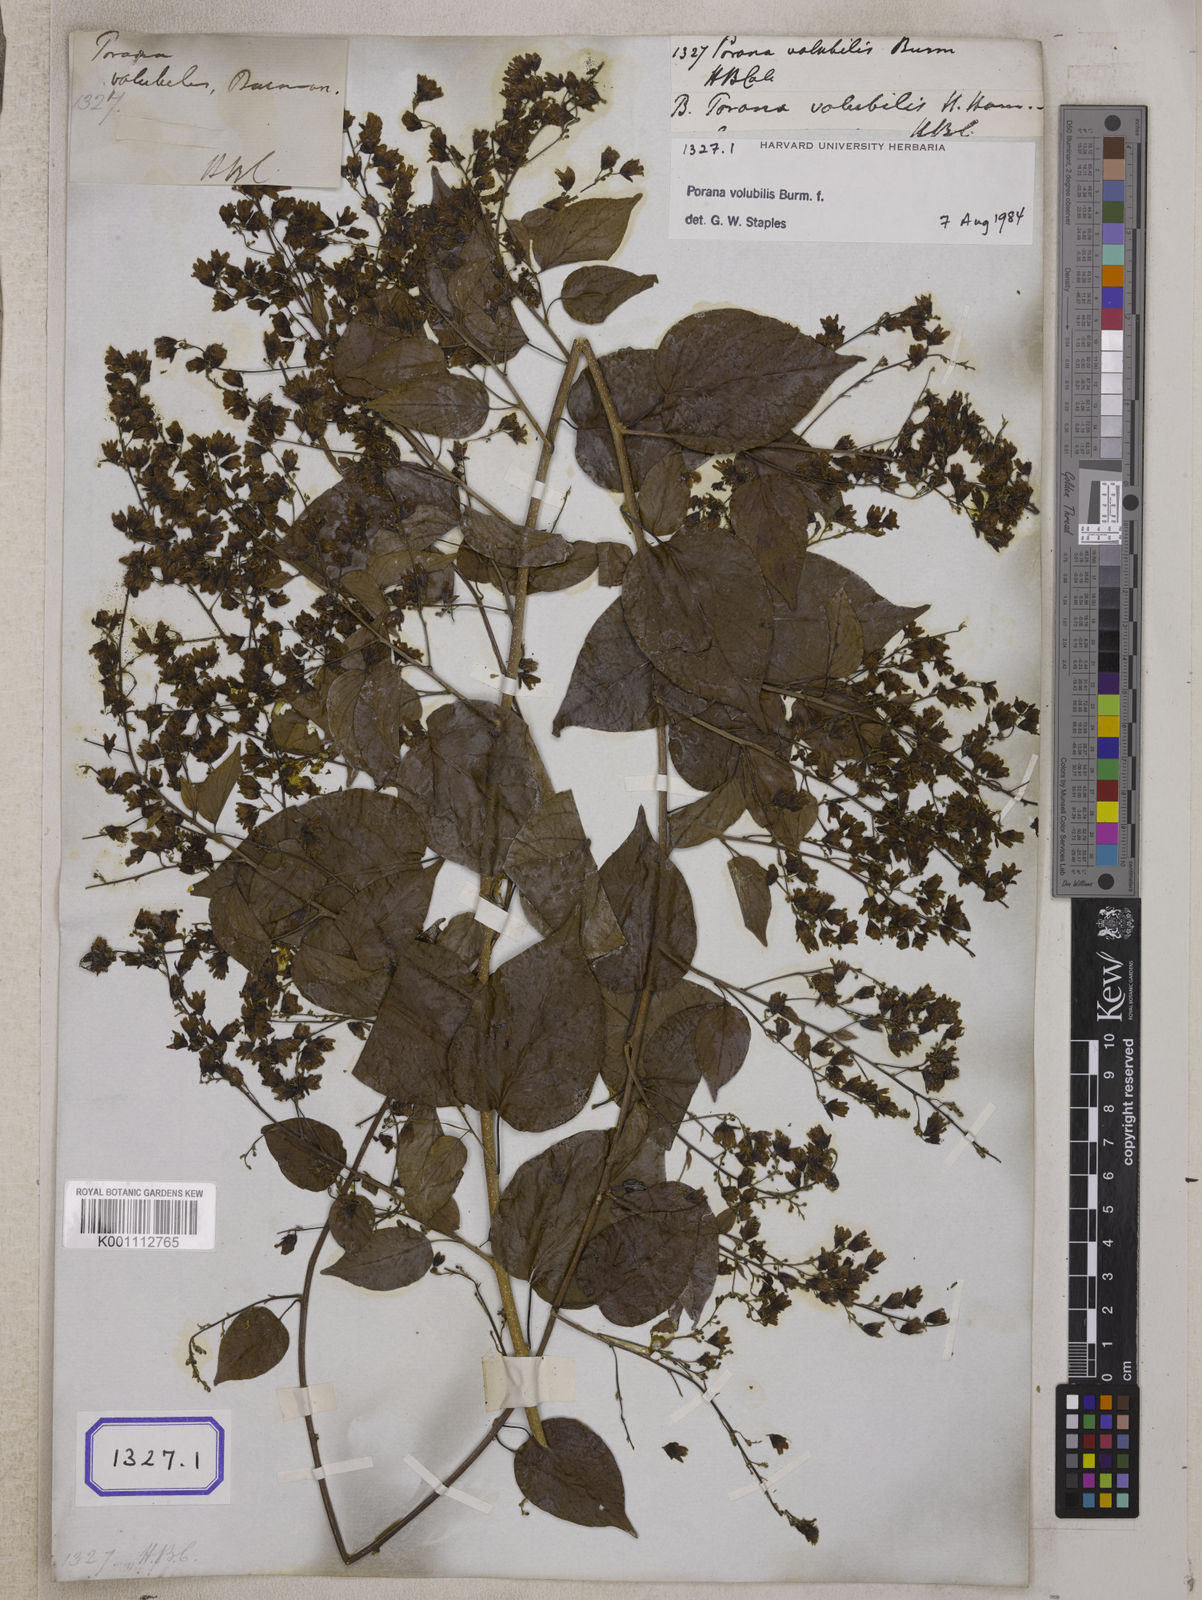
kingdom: Plantae
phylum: Tracheophyta
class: Magnoliopsida
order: Solanales
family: Convolvulaceae
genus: Porana
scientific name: Porana volubilis
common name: Bridal-creeper
